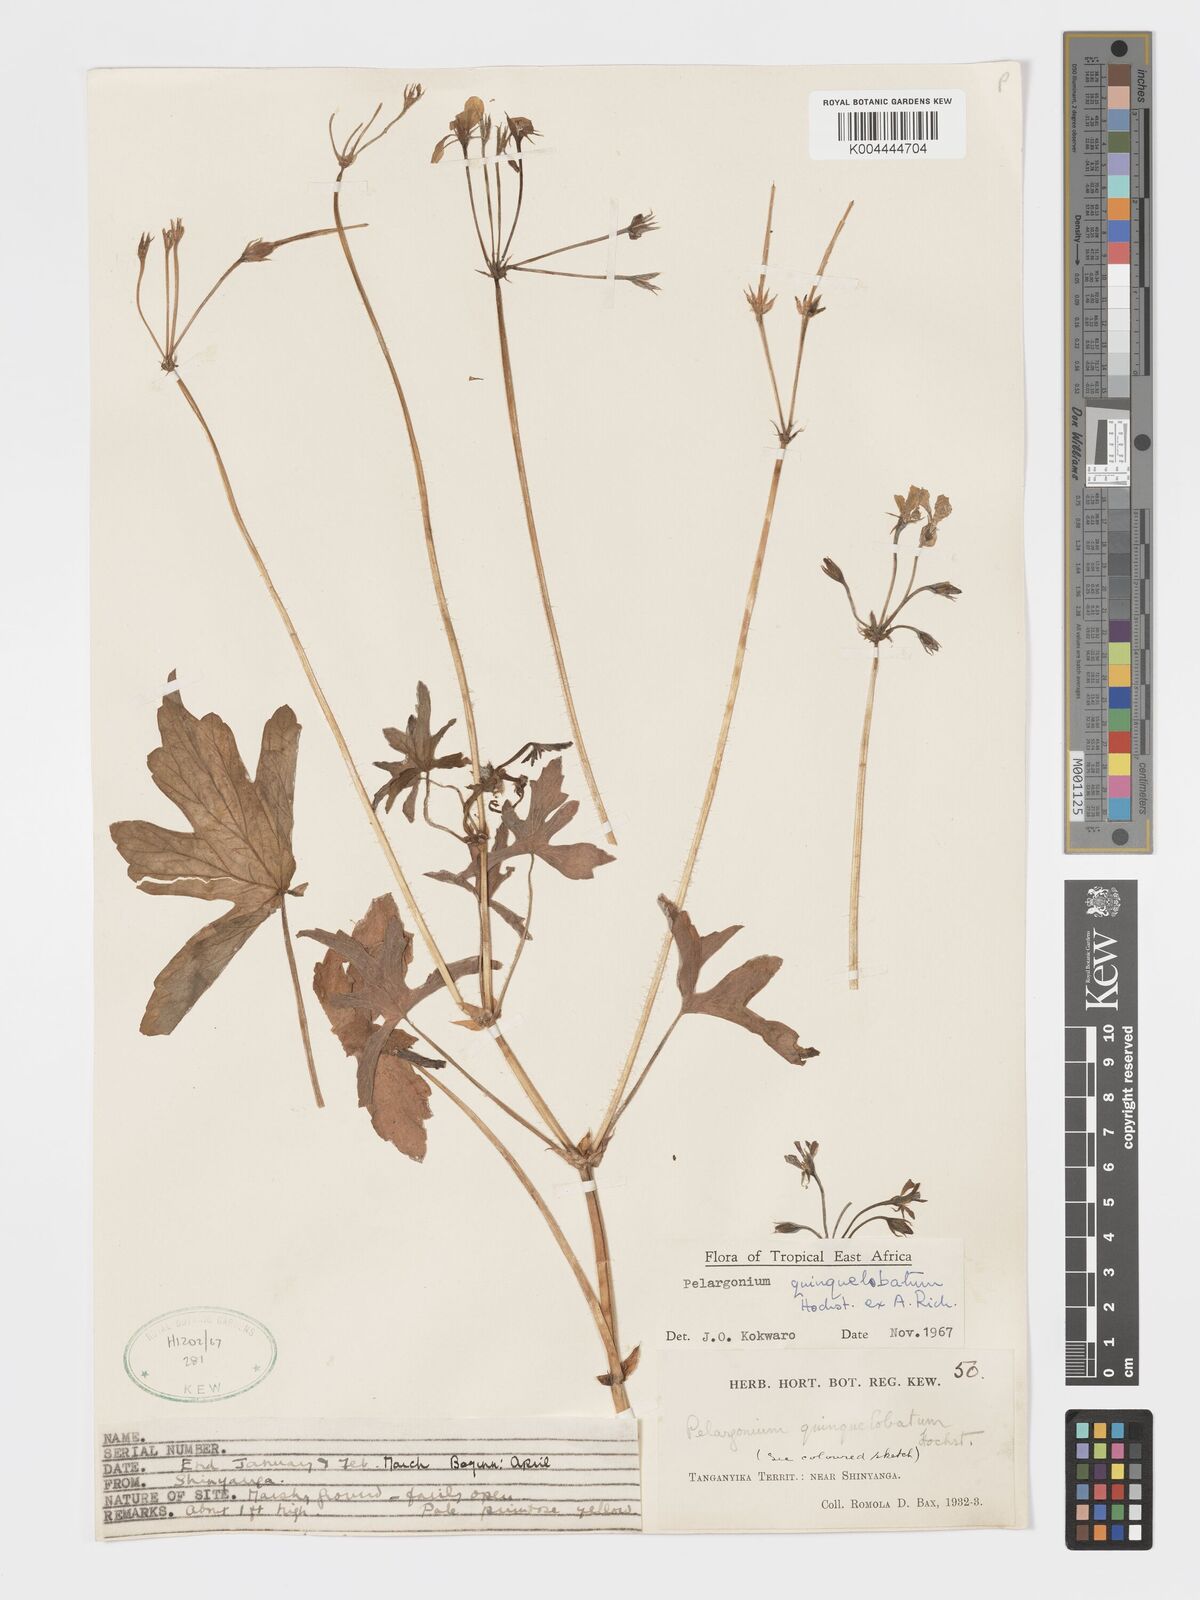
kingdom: Plantae
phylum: Tracheophyta
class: Magnoliopsida
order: Geraniales
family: Geraniaceae
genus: Pelargonium
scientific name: Pelargonium quinquelobatum
